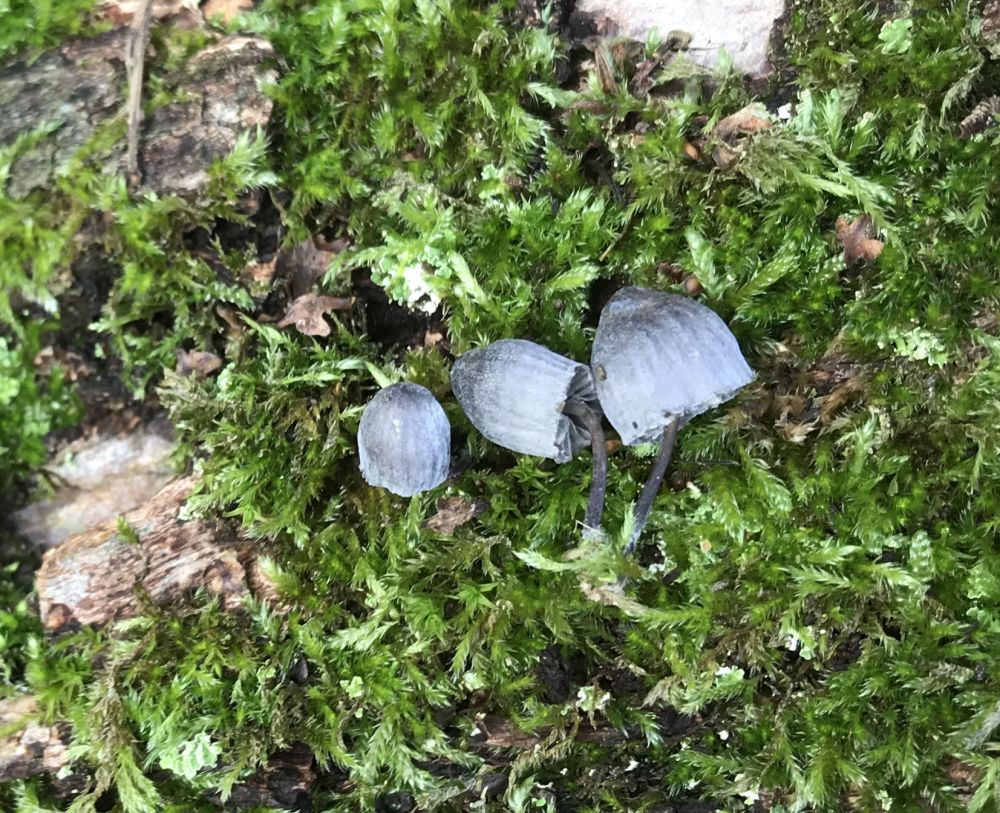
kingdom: Fungi
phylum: Basidiomycota
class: Agaricomycetes
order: Agaricales
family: Mycenaceae
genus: Mycena
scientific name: Mycena pseudocorticola
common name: gråblå bark-huesvamp
